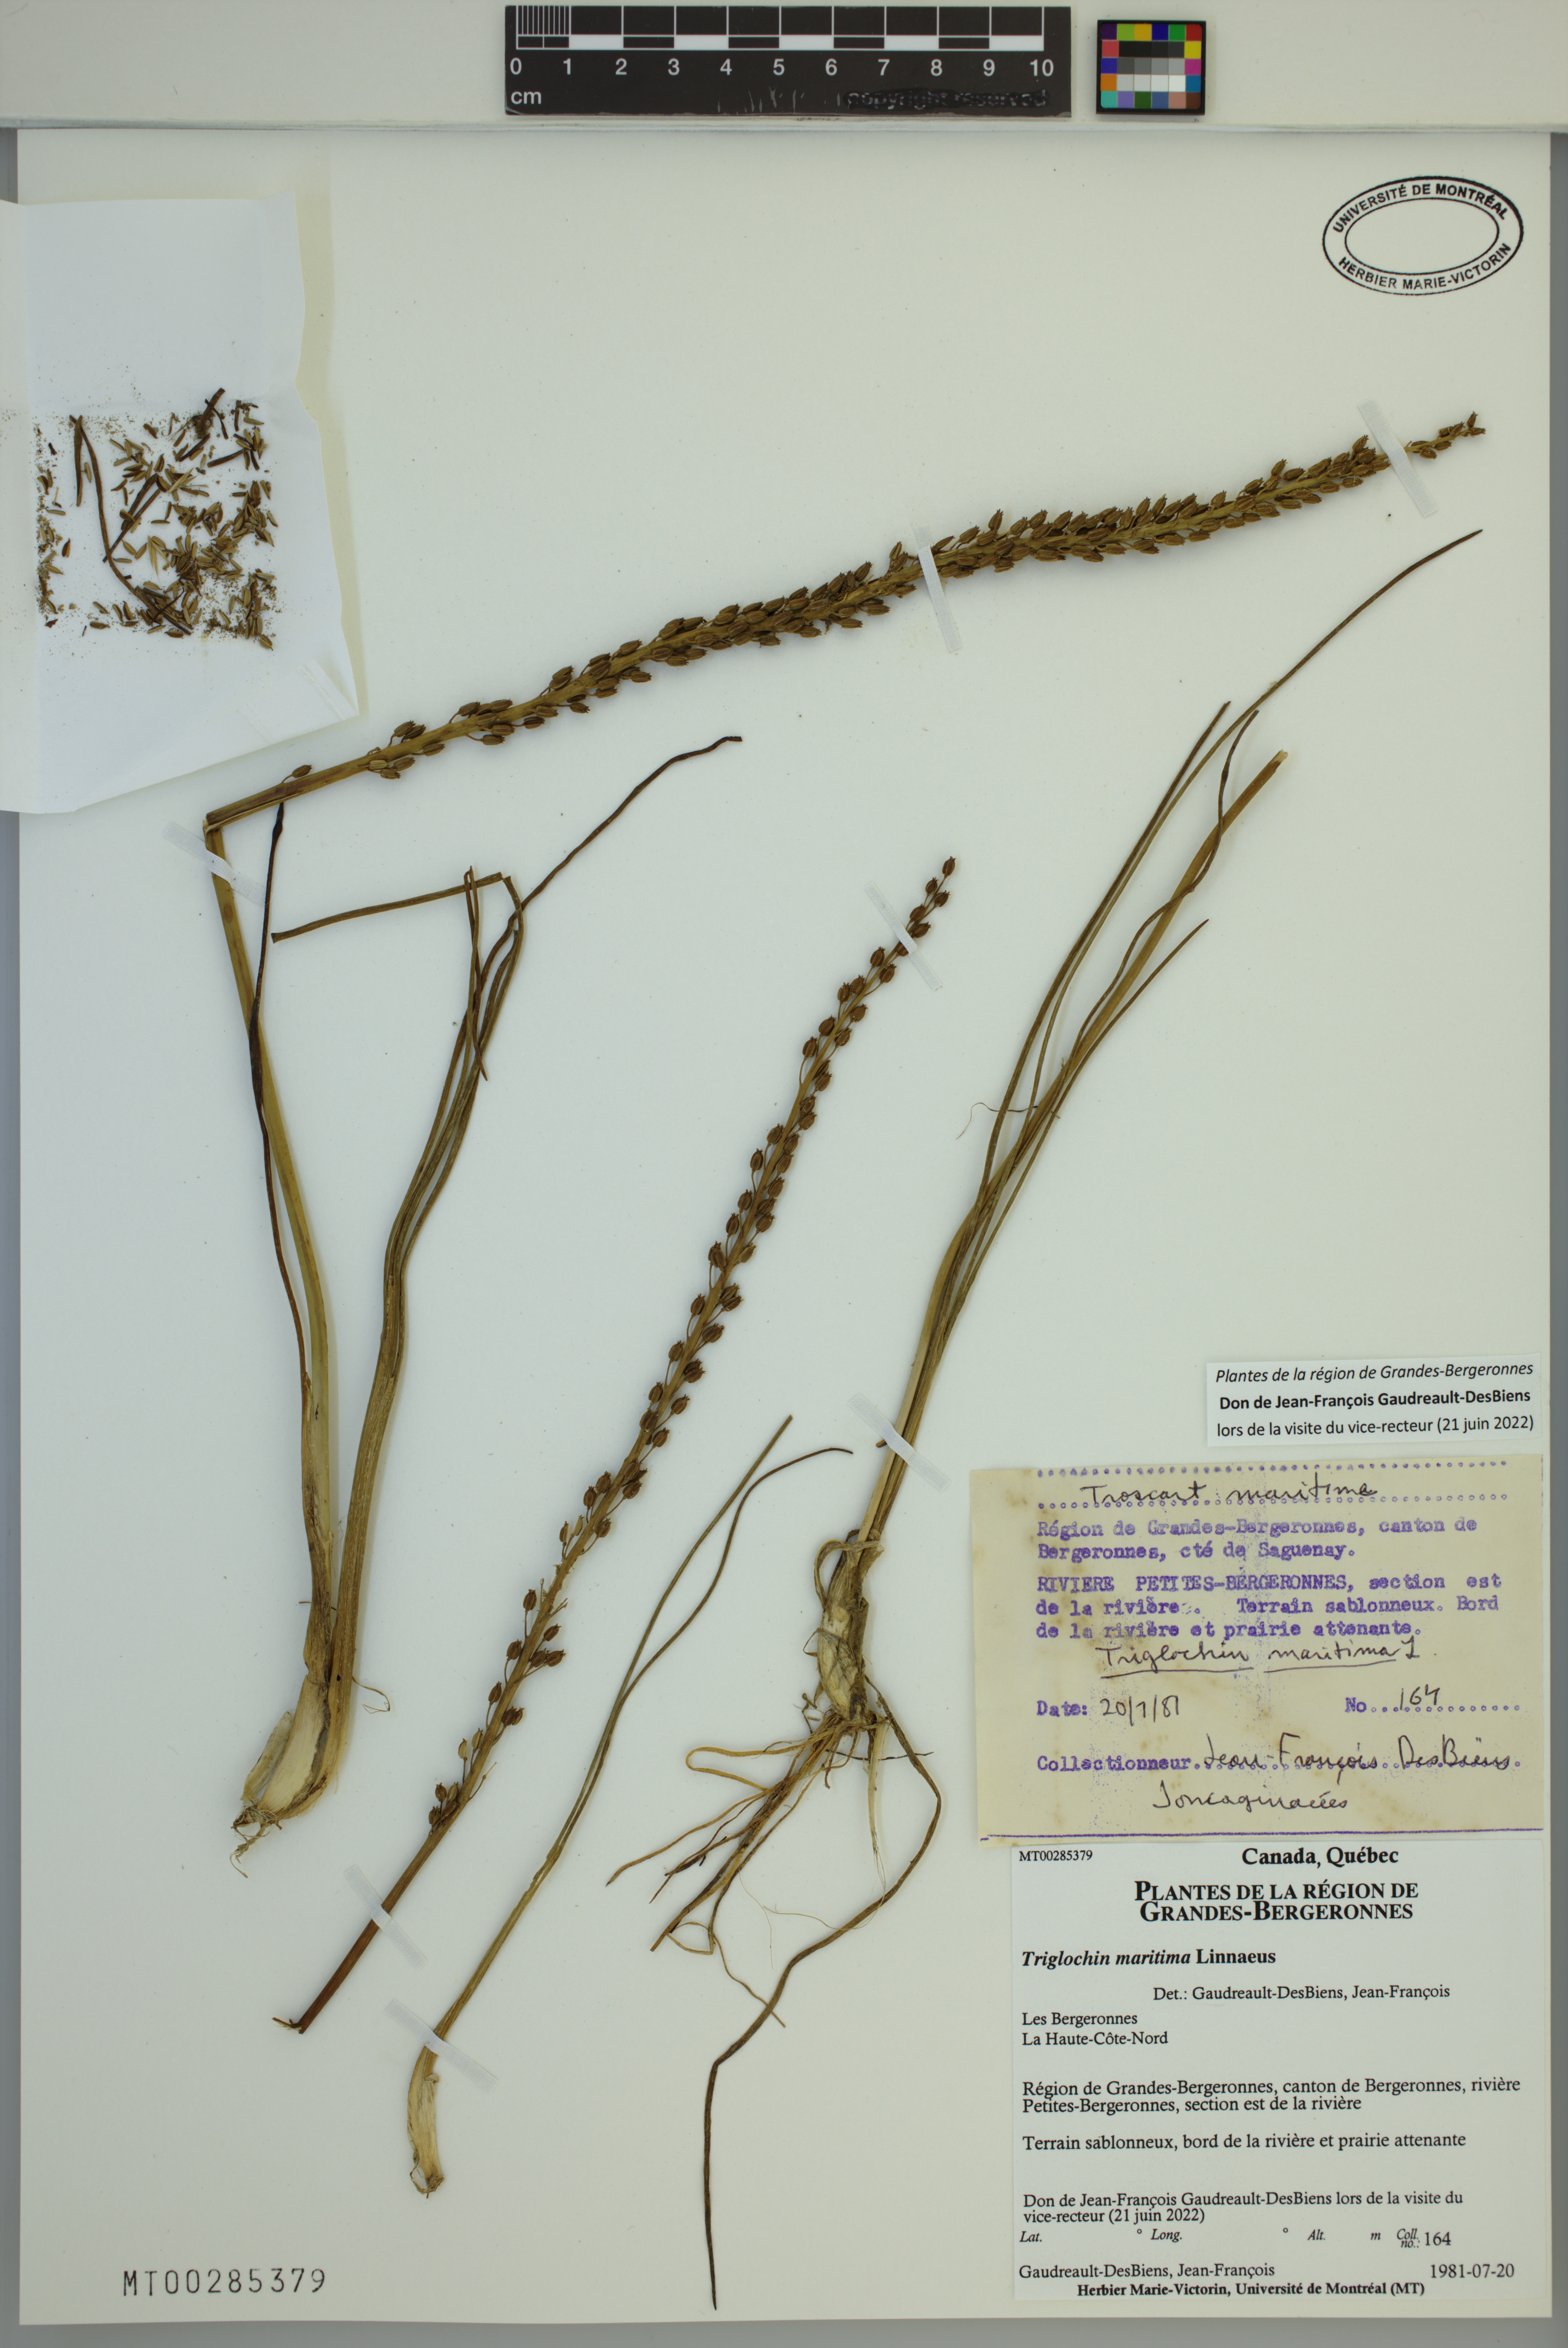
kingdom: Plantae
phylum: Tracheophyta
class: Liliopsida
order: Alismatales
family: Juncaginaceae
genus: Triglochin
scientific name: Triglochin maritima
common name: Sea arrowgrass
